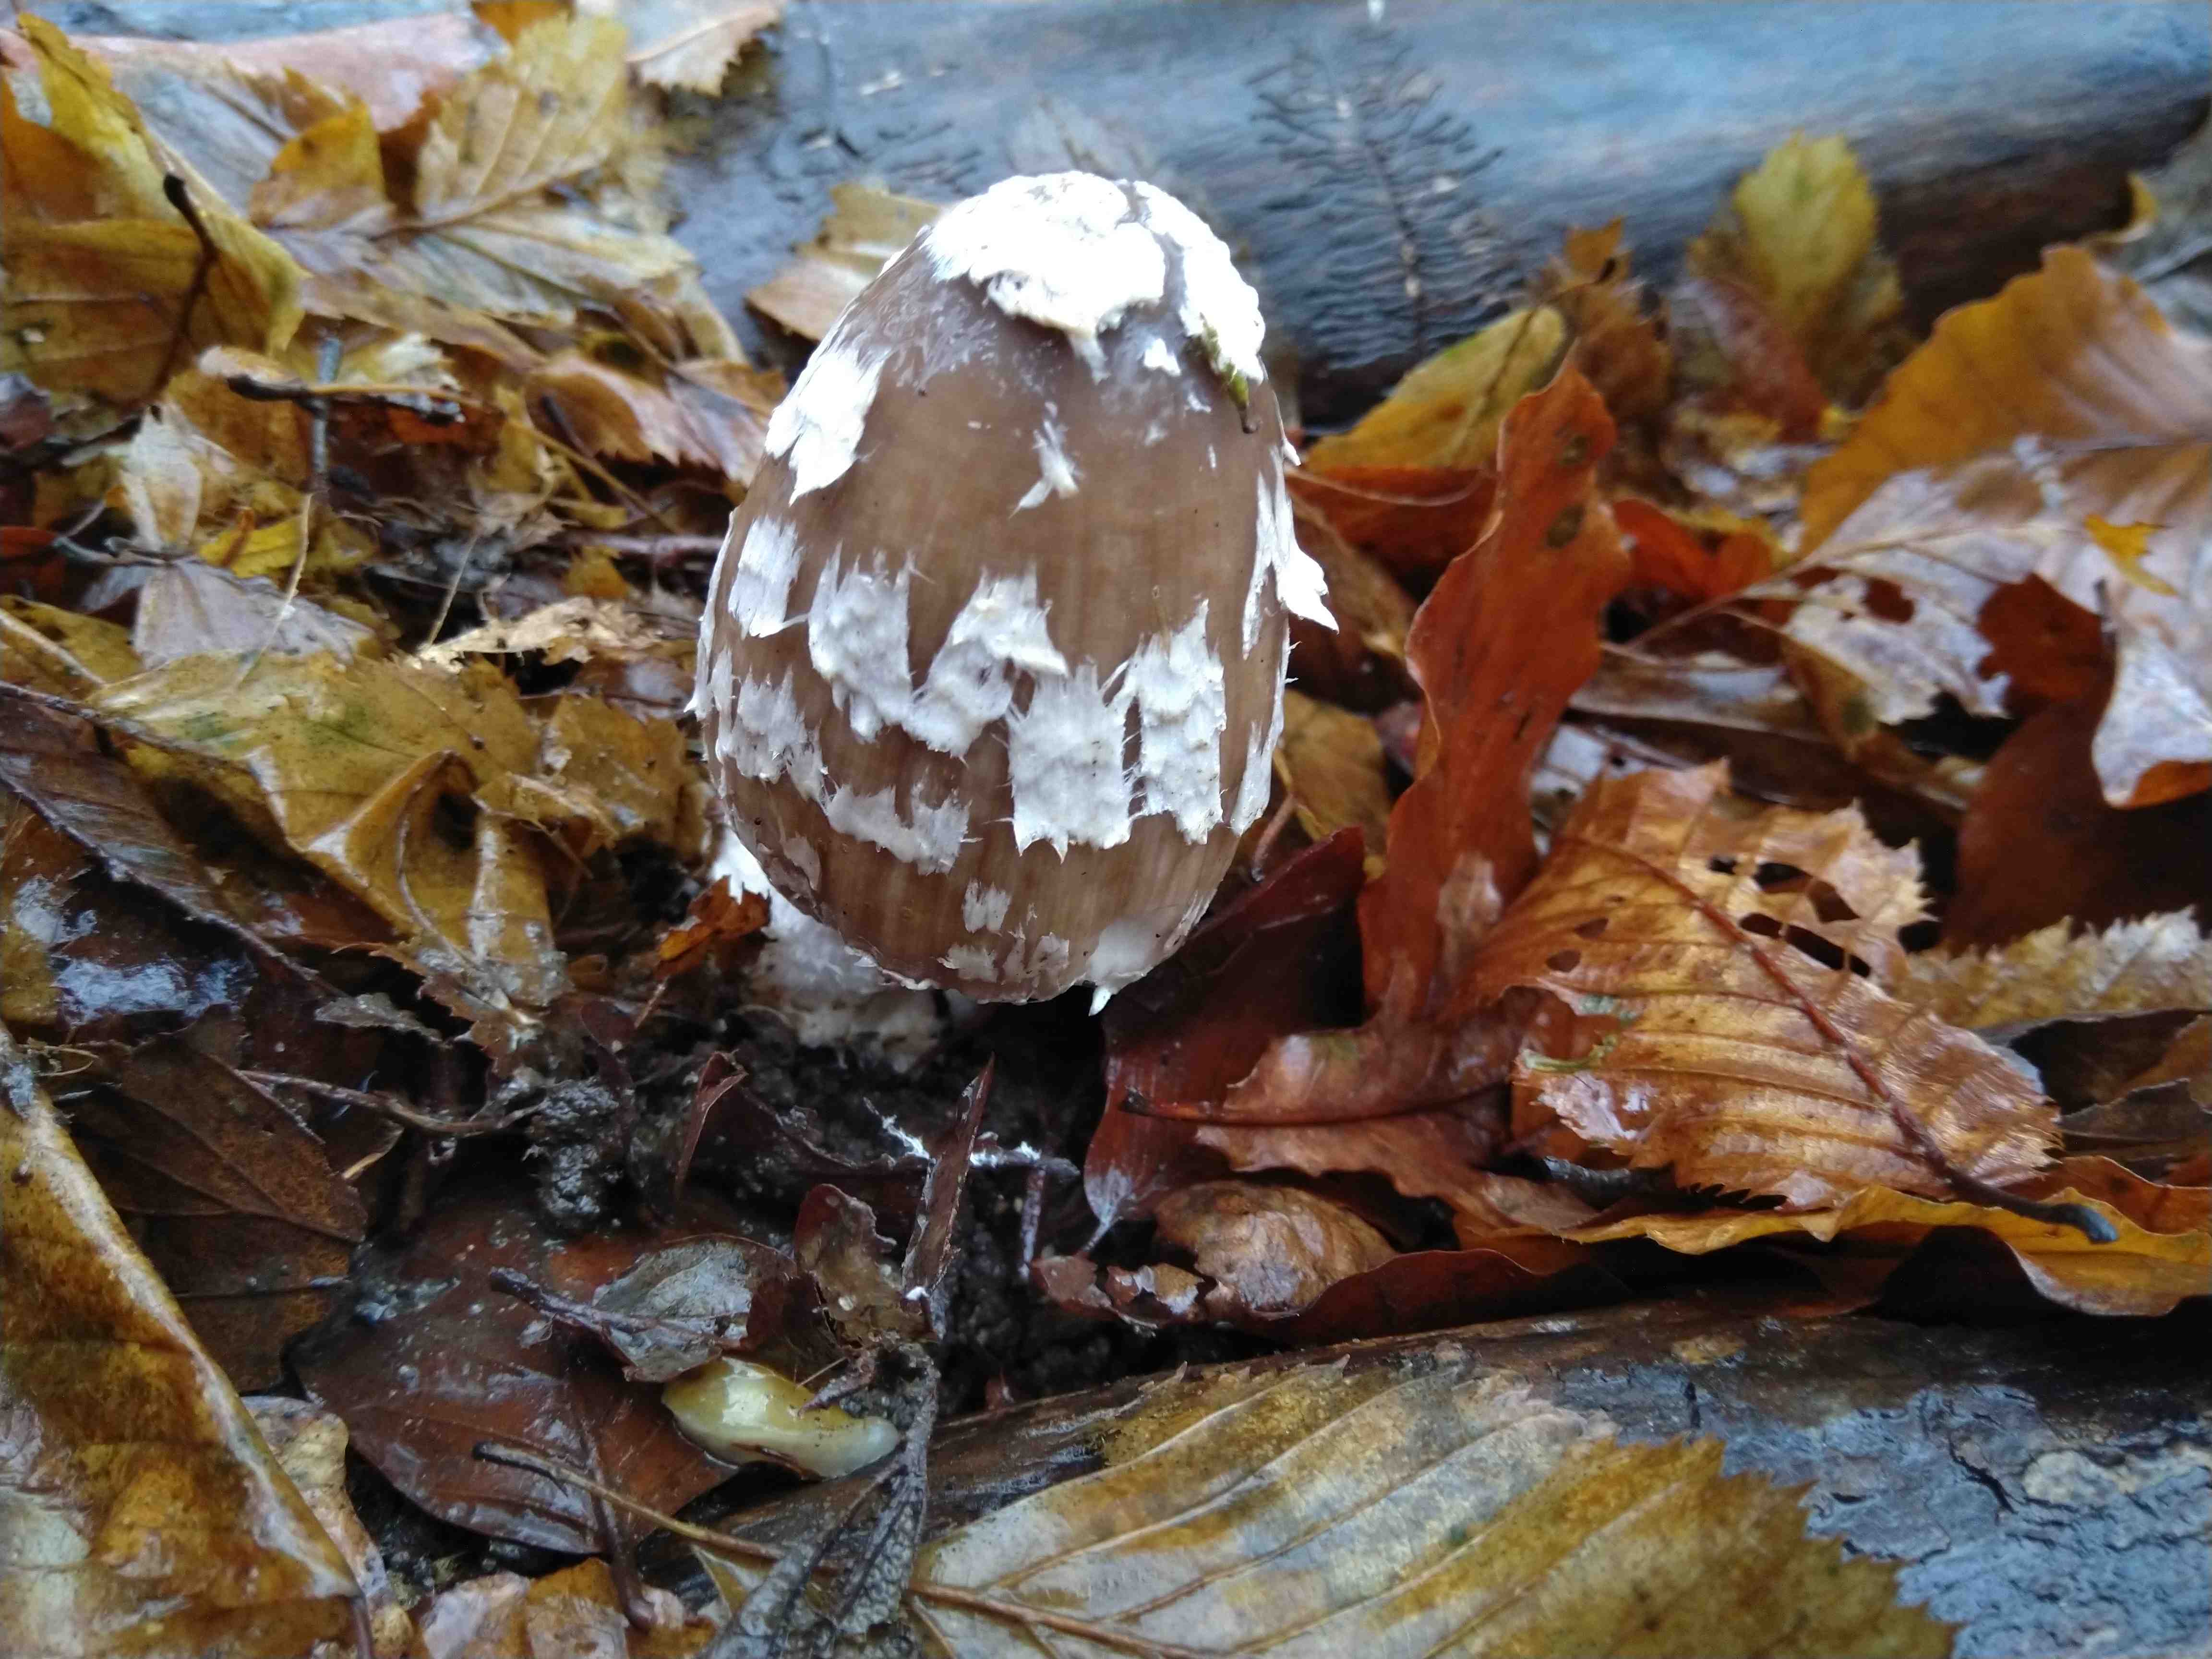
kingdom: Fungi
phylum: Basidiomycota
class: Agaricomycetes
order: Agaricales
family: Psathyrellaceae
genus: Coprinopsis
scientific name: Coprinopsis picacea
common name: skade-blækhat
